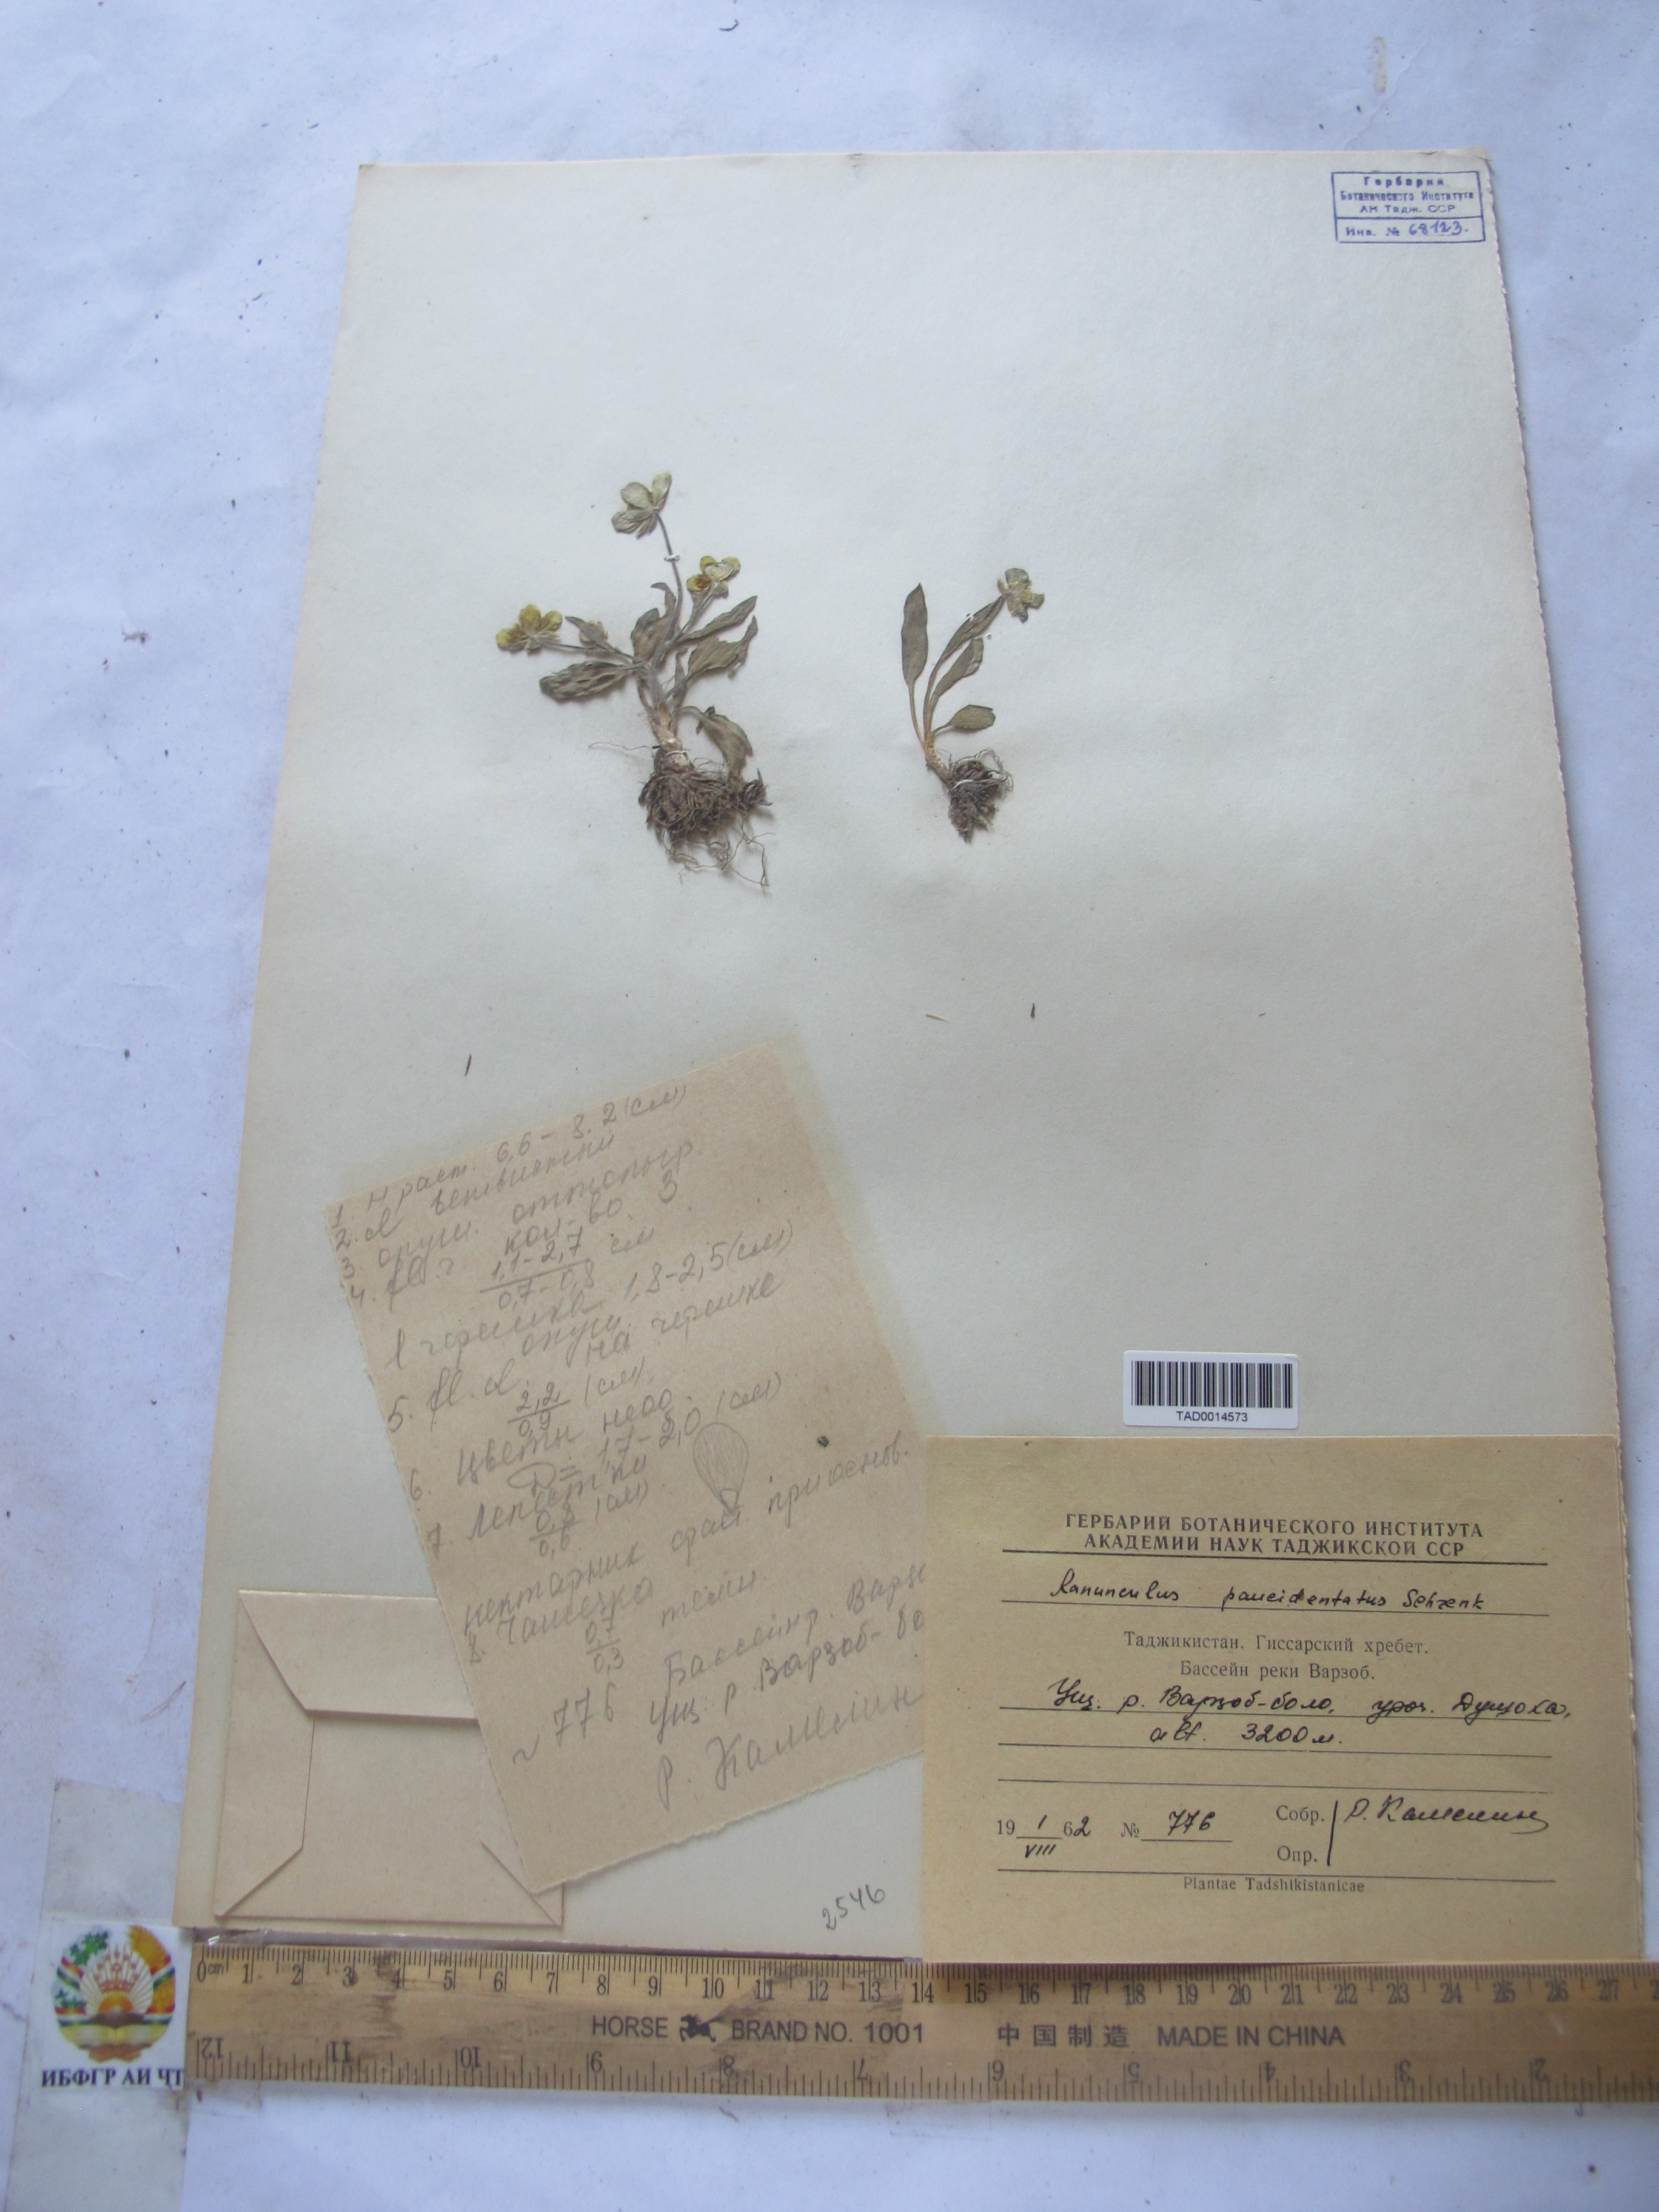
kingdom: Plantae
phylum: Tracheophyta
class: Magnoliopsida
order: Ranunculales
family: Ranunculaceae
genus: Ranunculus
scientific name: Ranunculus paucidentatus
